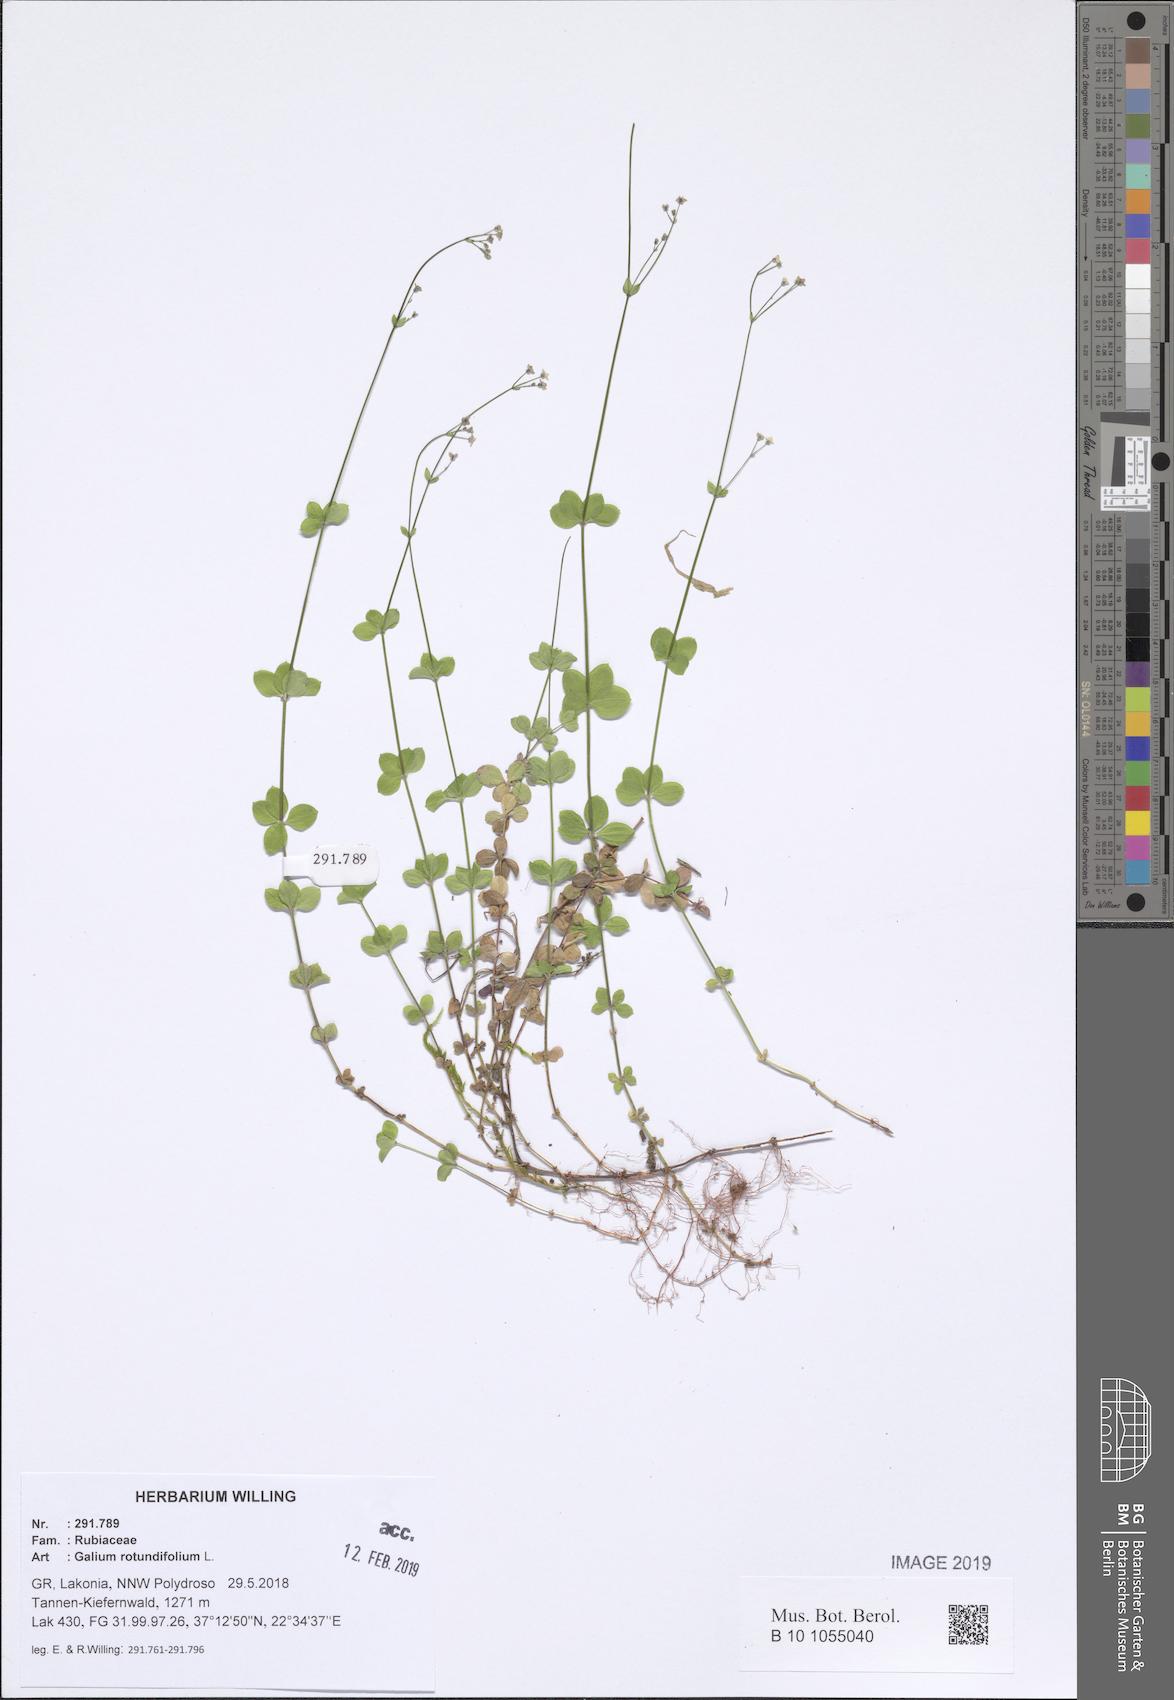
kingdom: Plantae
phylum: Tracheophyta
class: Magnoliopsida
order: Gentianales
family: Rubiaceae
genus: Galium
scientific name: Galium rotundifolium
